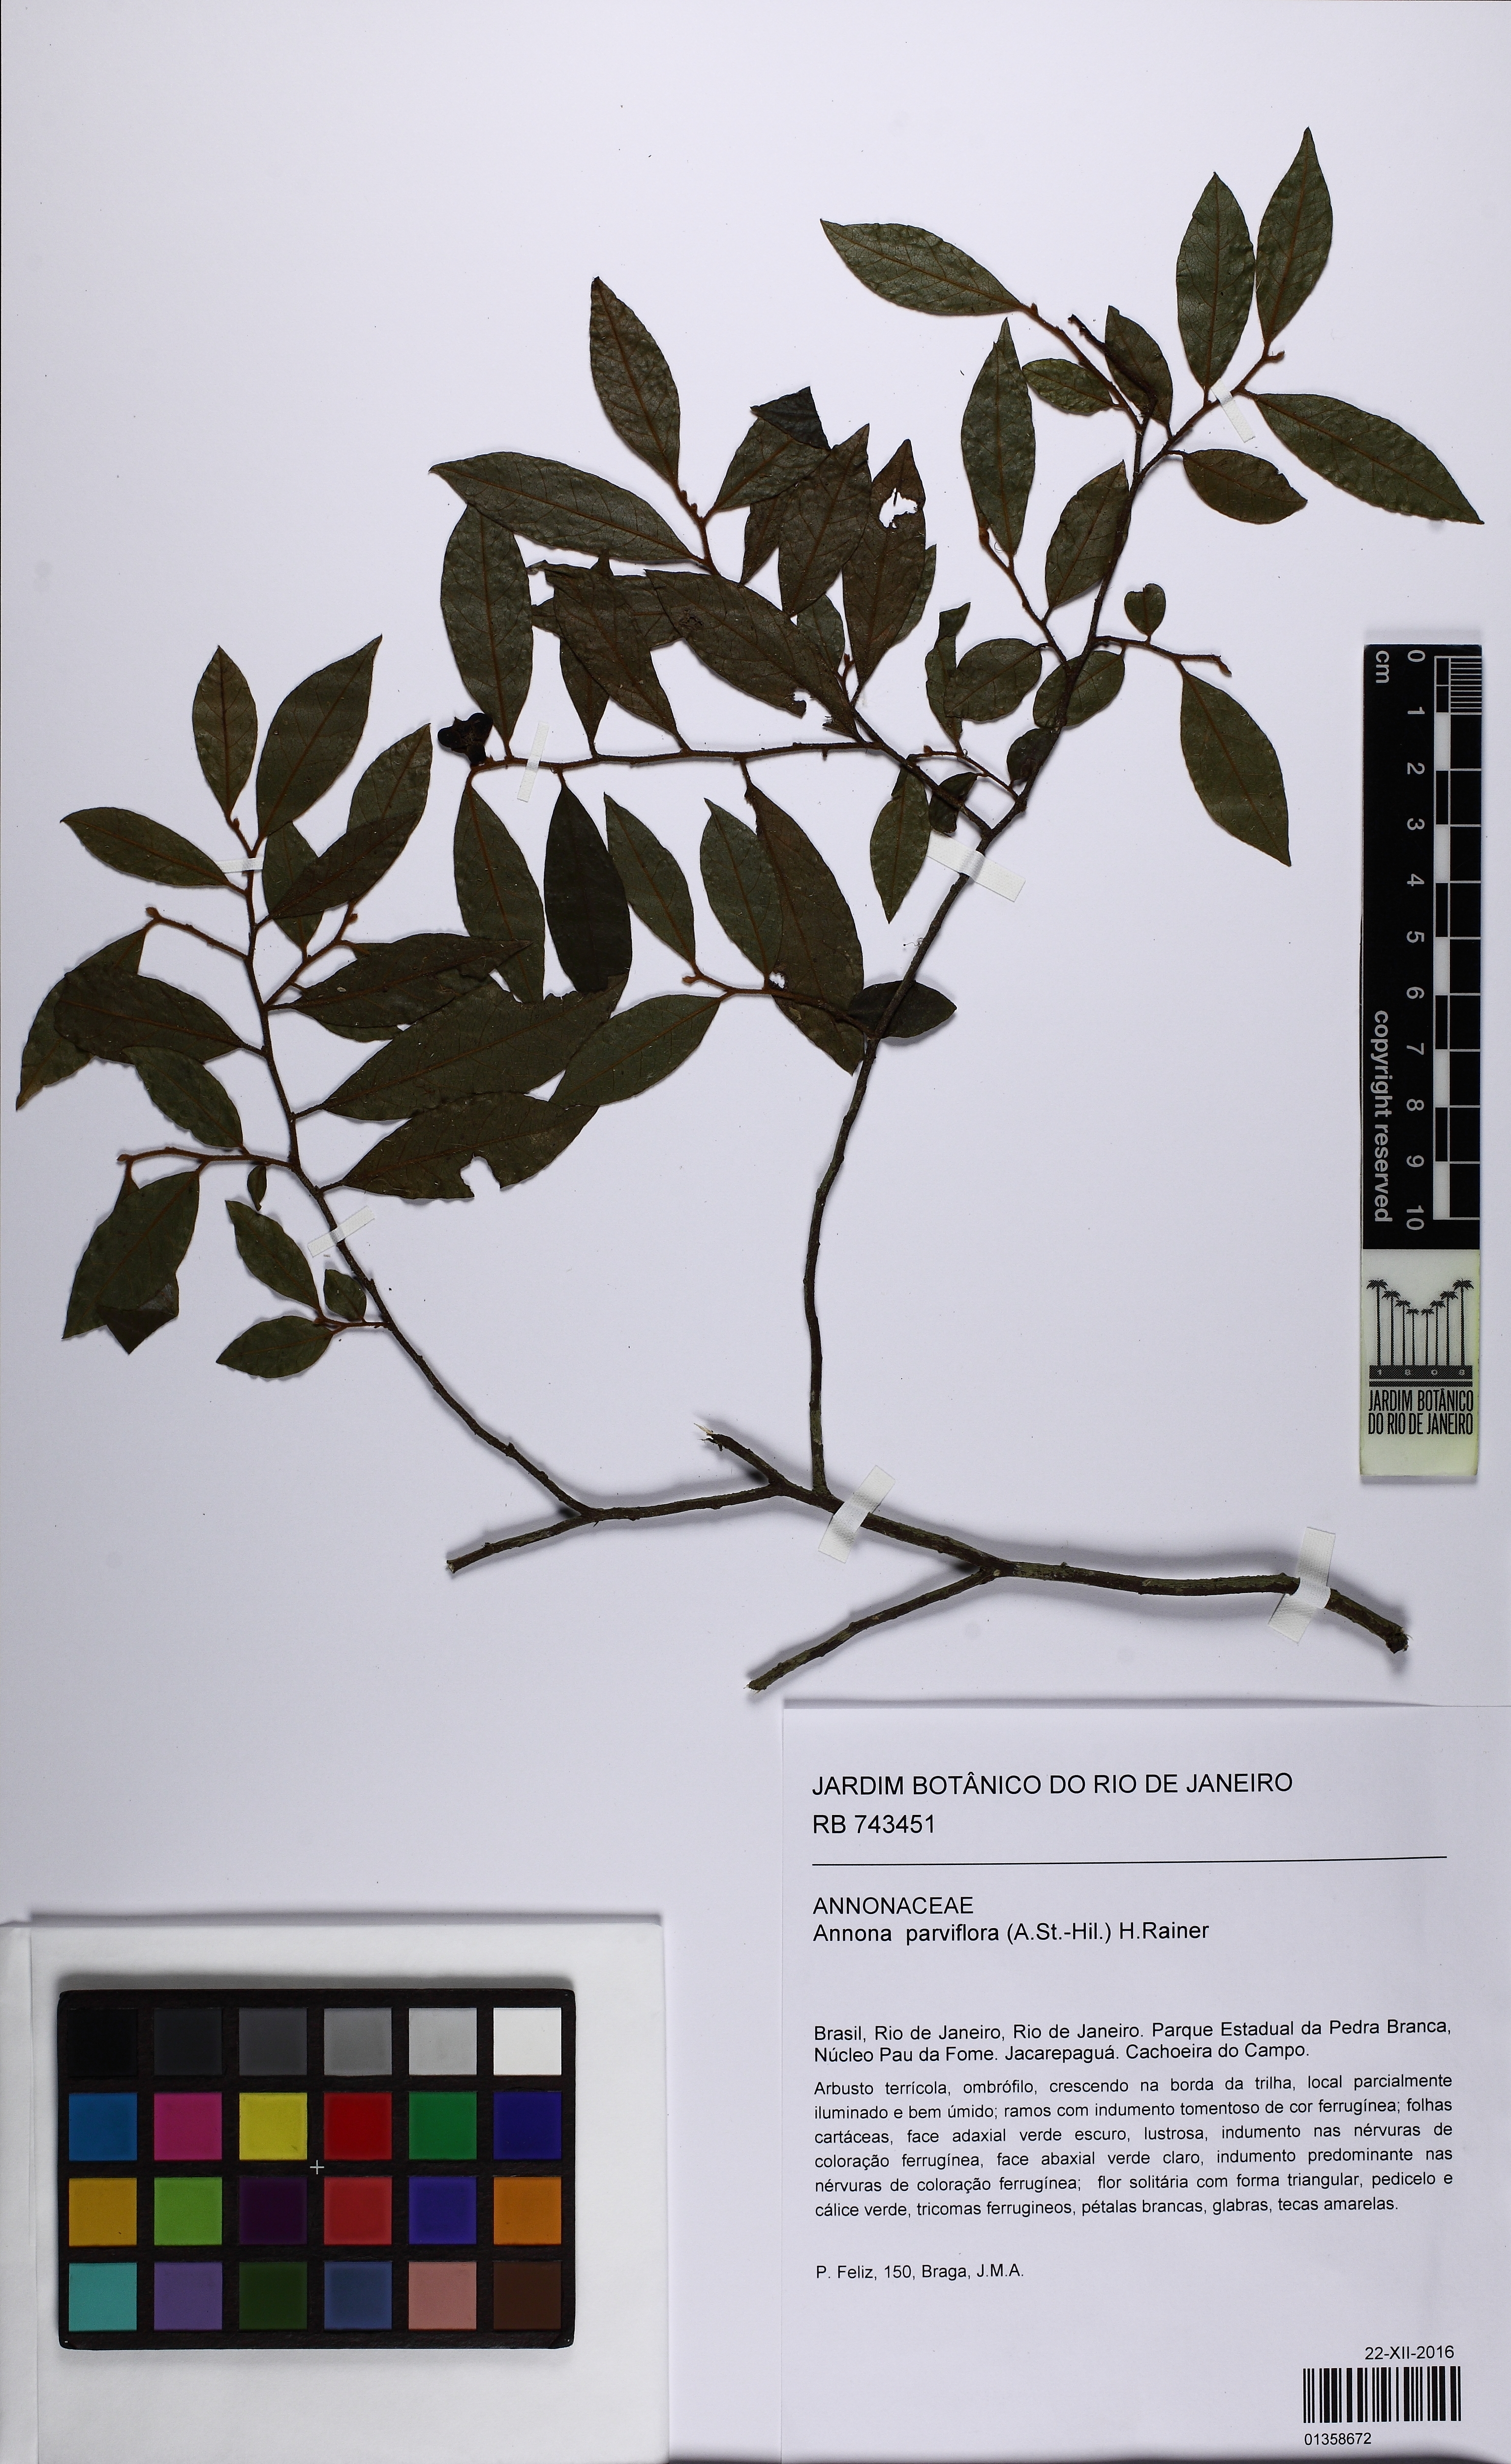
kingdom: Plantae
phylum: Tracheophyta
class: Magnoliopsida
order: Magnoliales
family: Annonaceae
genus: Annona
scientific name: Annona parviflora
